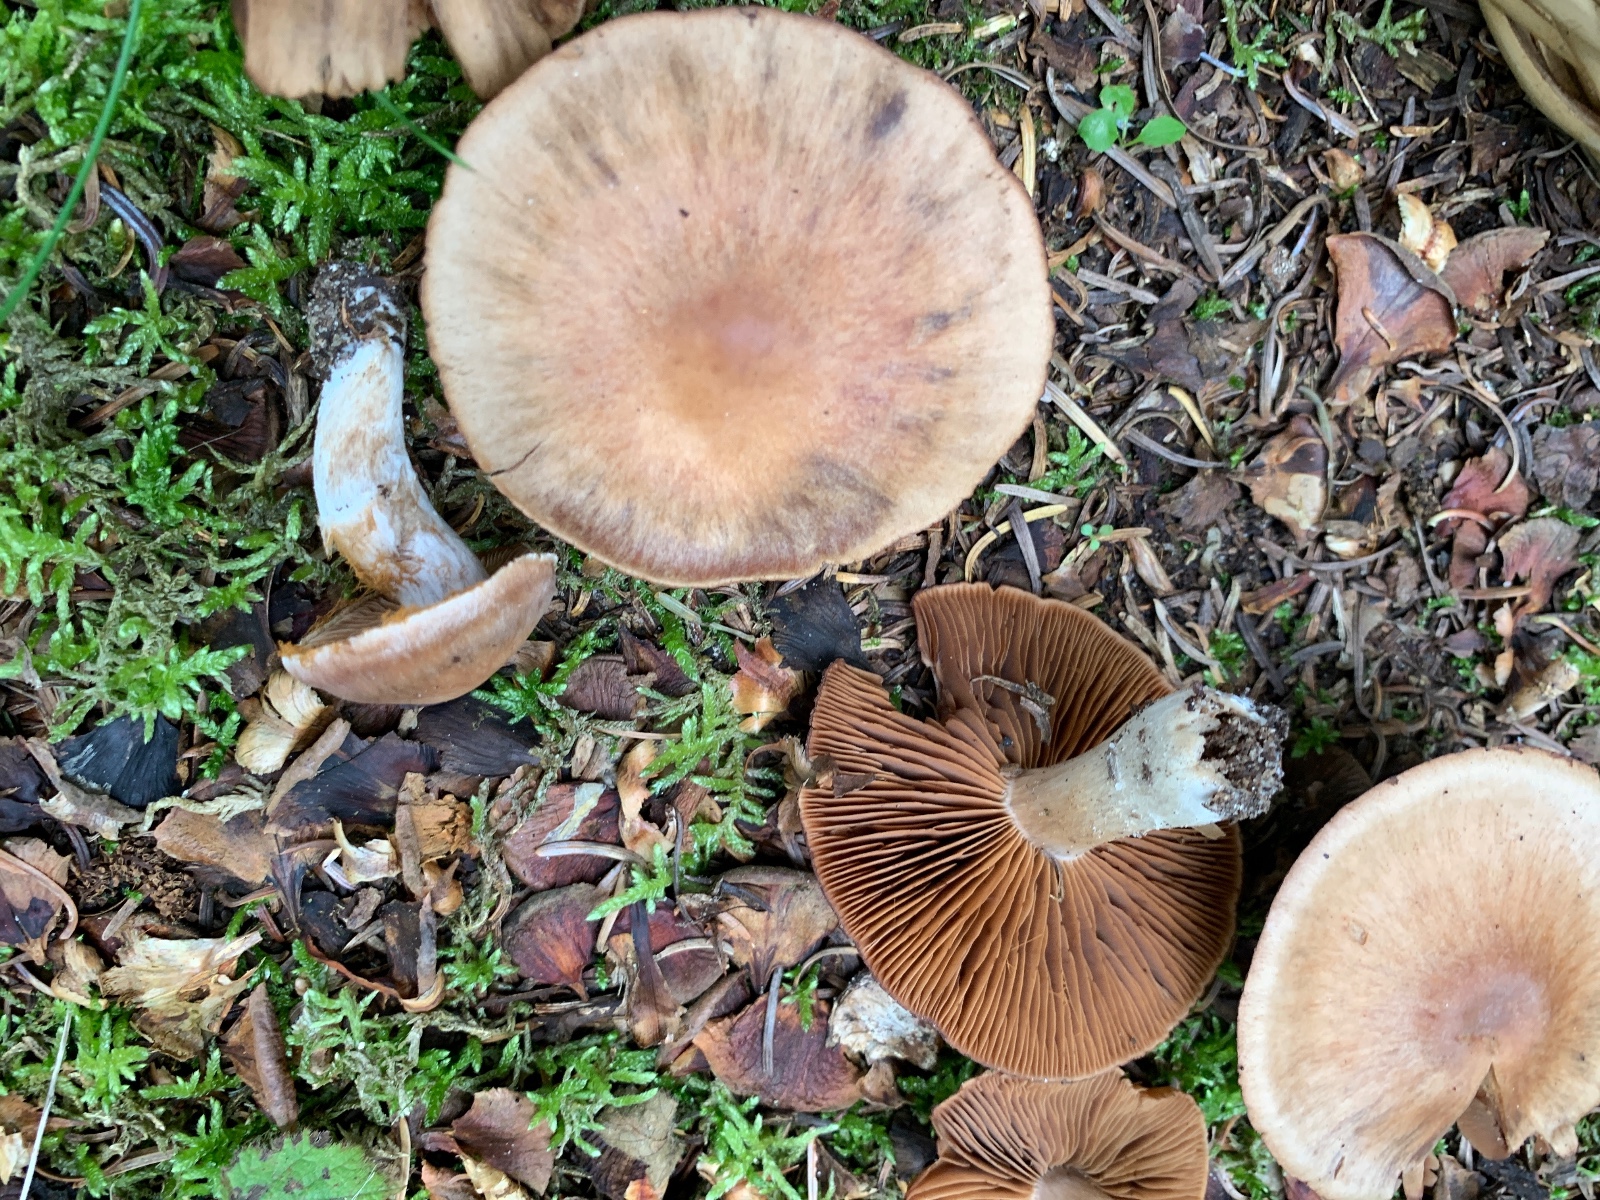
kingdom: Fungi
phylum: Basidiomycota
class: Agaricomycetes
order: Agaricales
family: Cortinariaceae
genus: Cortinarius
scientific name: Cortinarius
